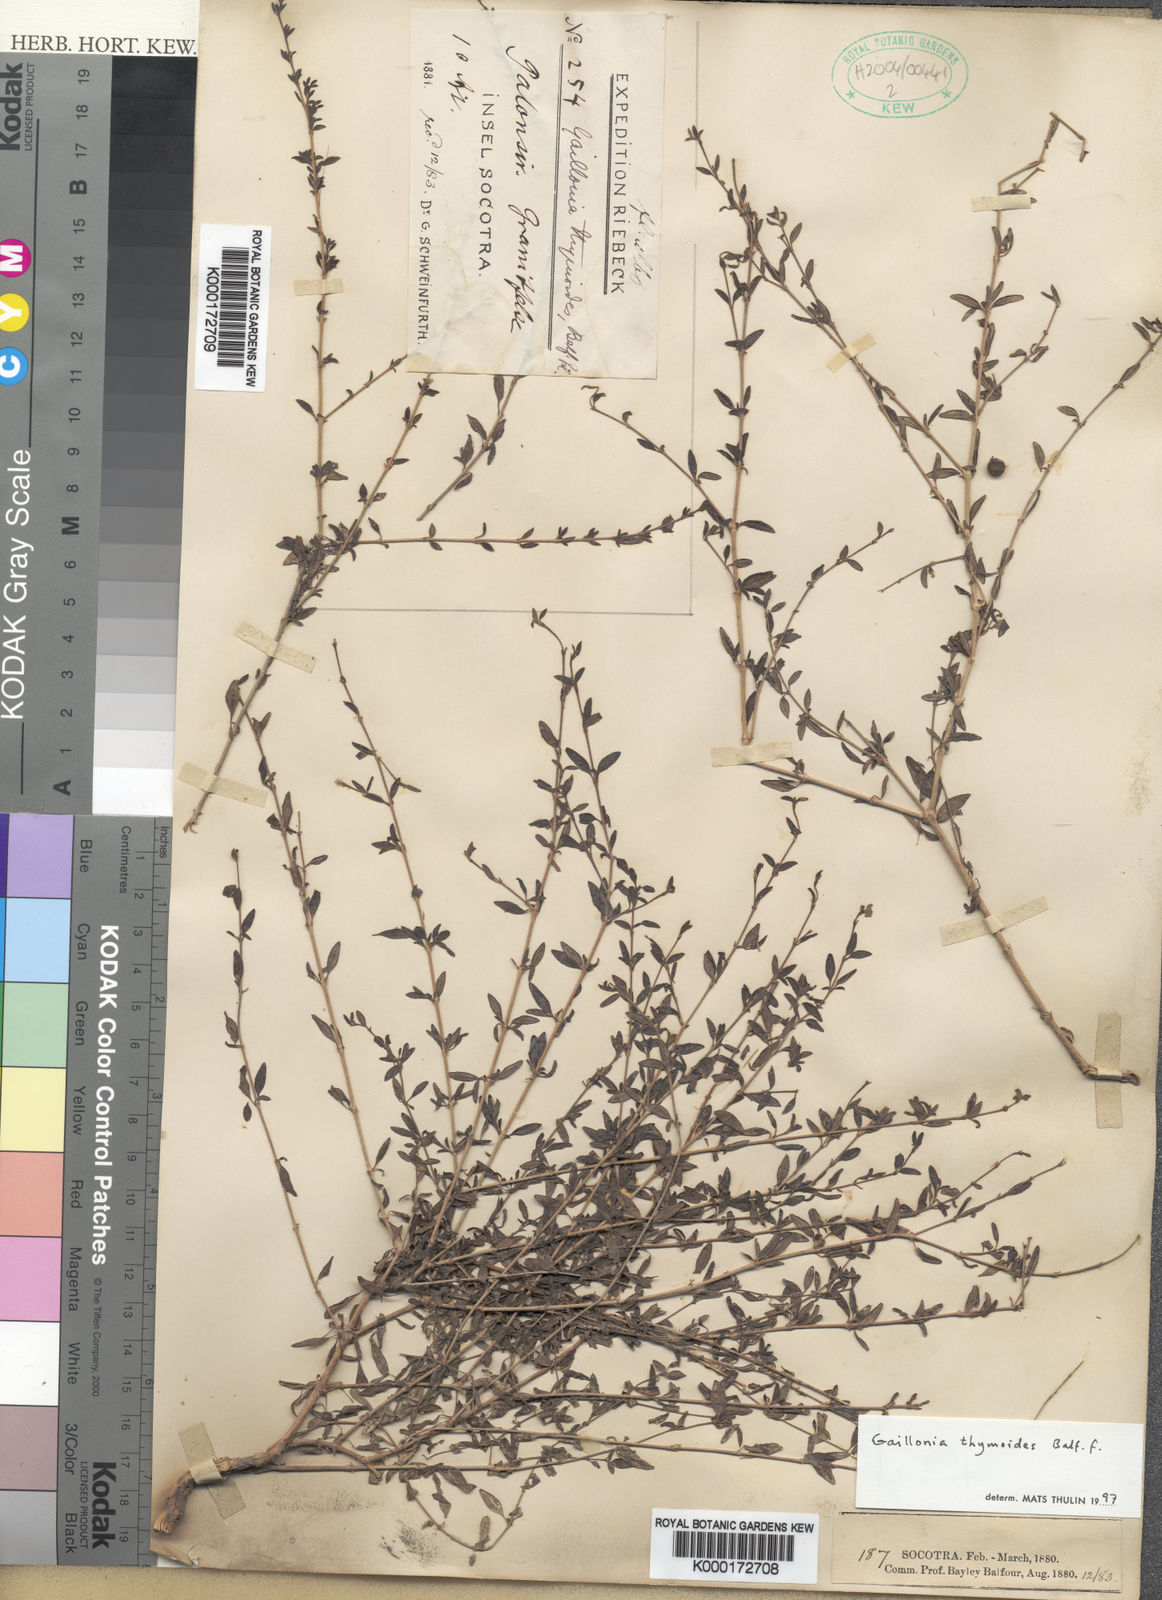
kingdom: Plantae
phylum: Tracheophyta
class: Magnoliopsida
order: Gentianales
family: Rubiaceae
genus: Plocama
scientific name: Plocama thymoides
